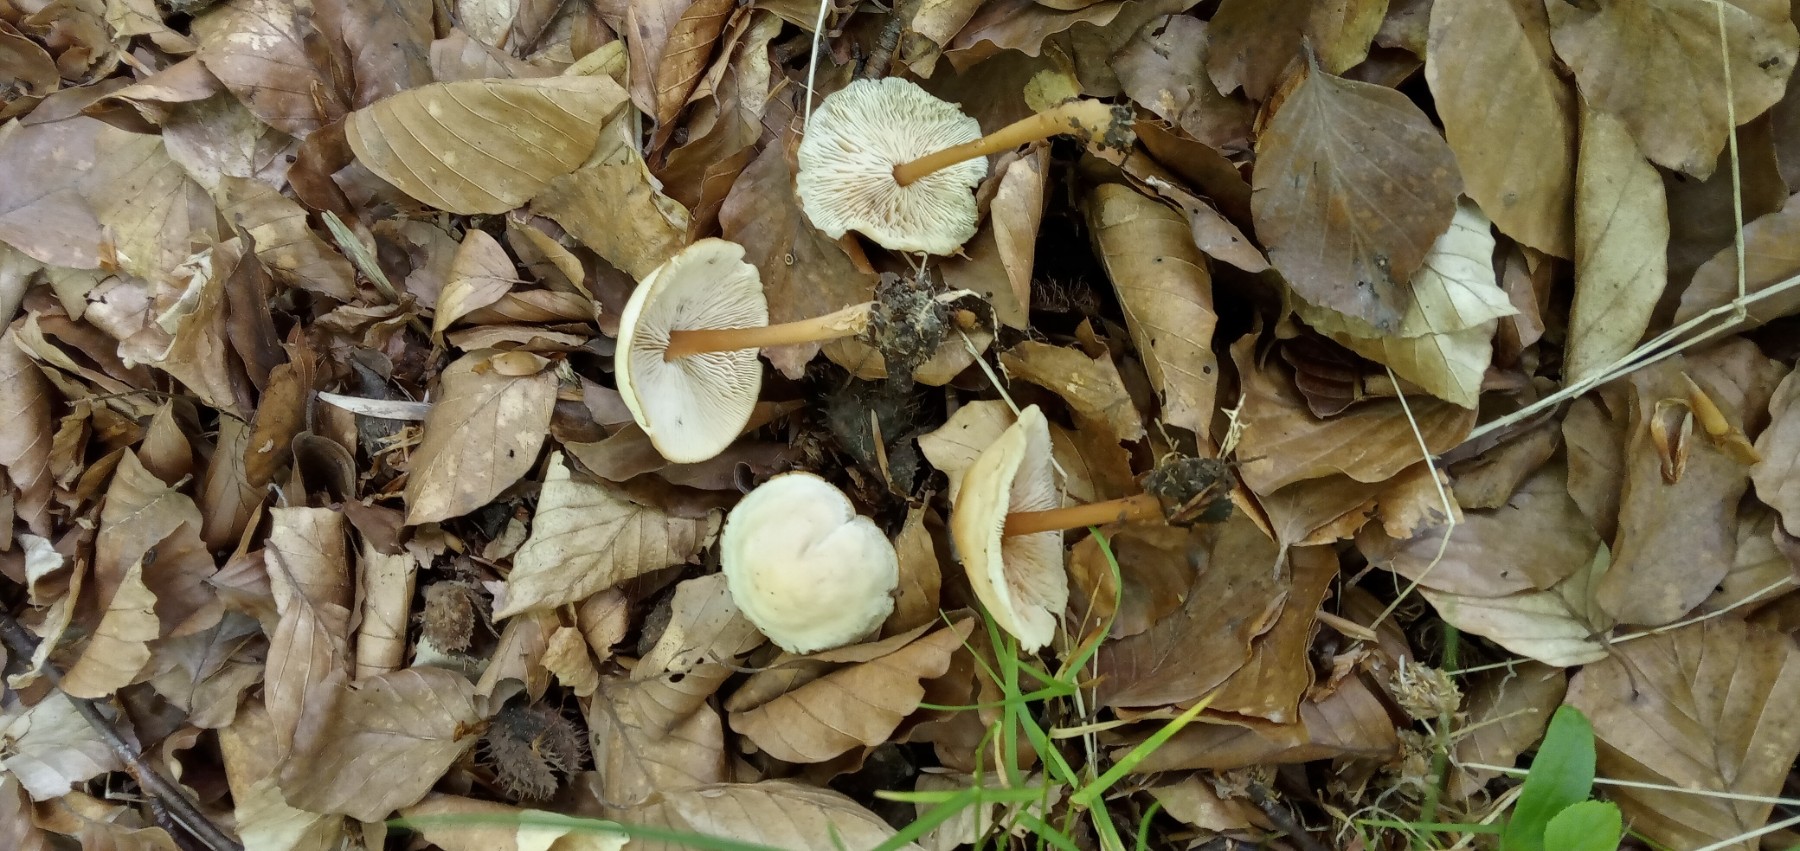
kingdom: Fungi
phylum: Basidiomycota
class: Agaricomycetes
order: Agaricales
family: Omphalotaceae
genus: Gymnopus
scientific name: Gymnopus dryophilus
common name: løv-fladhat
